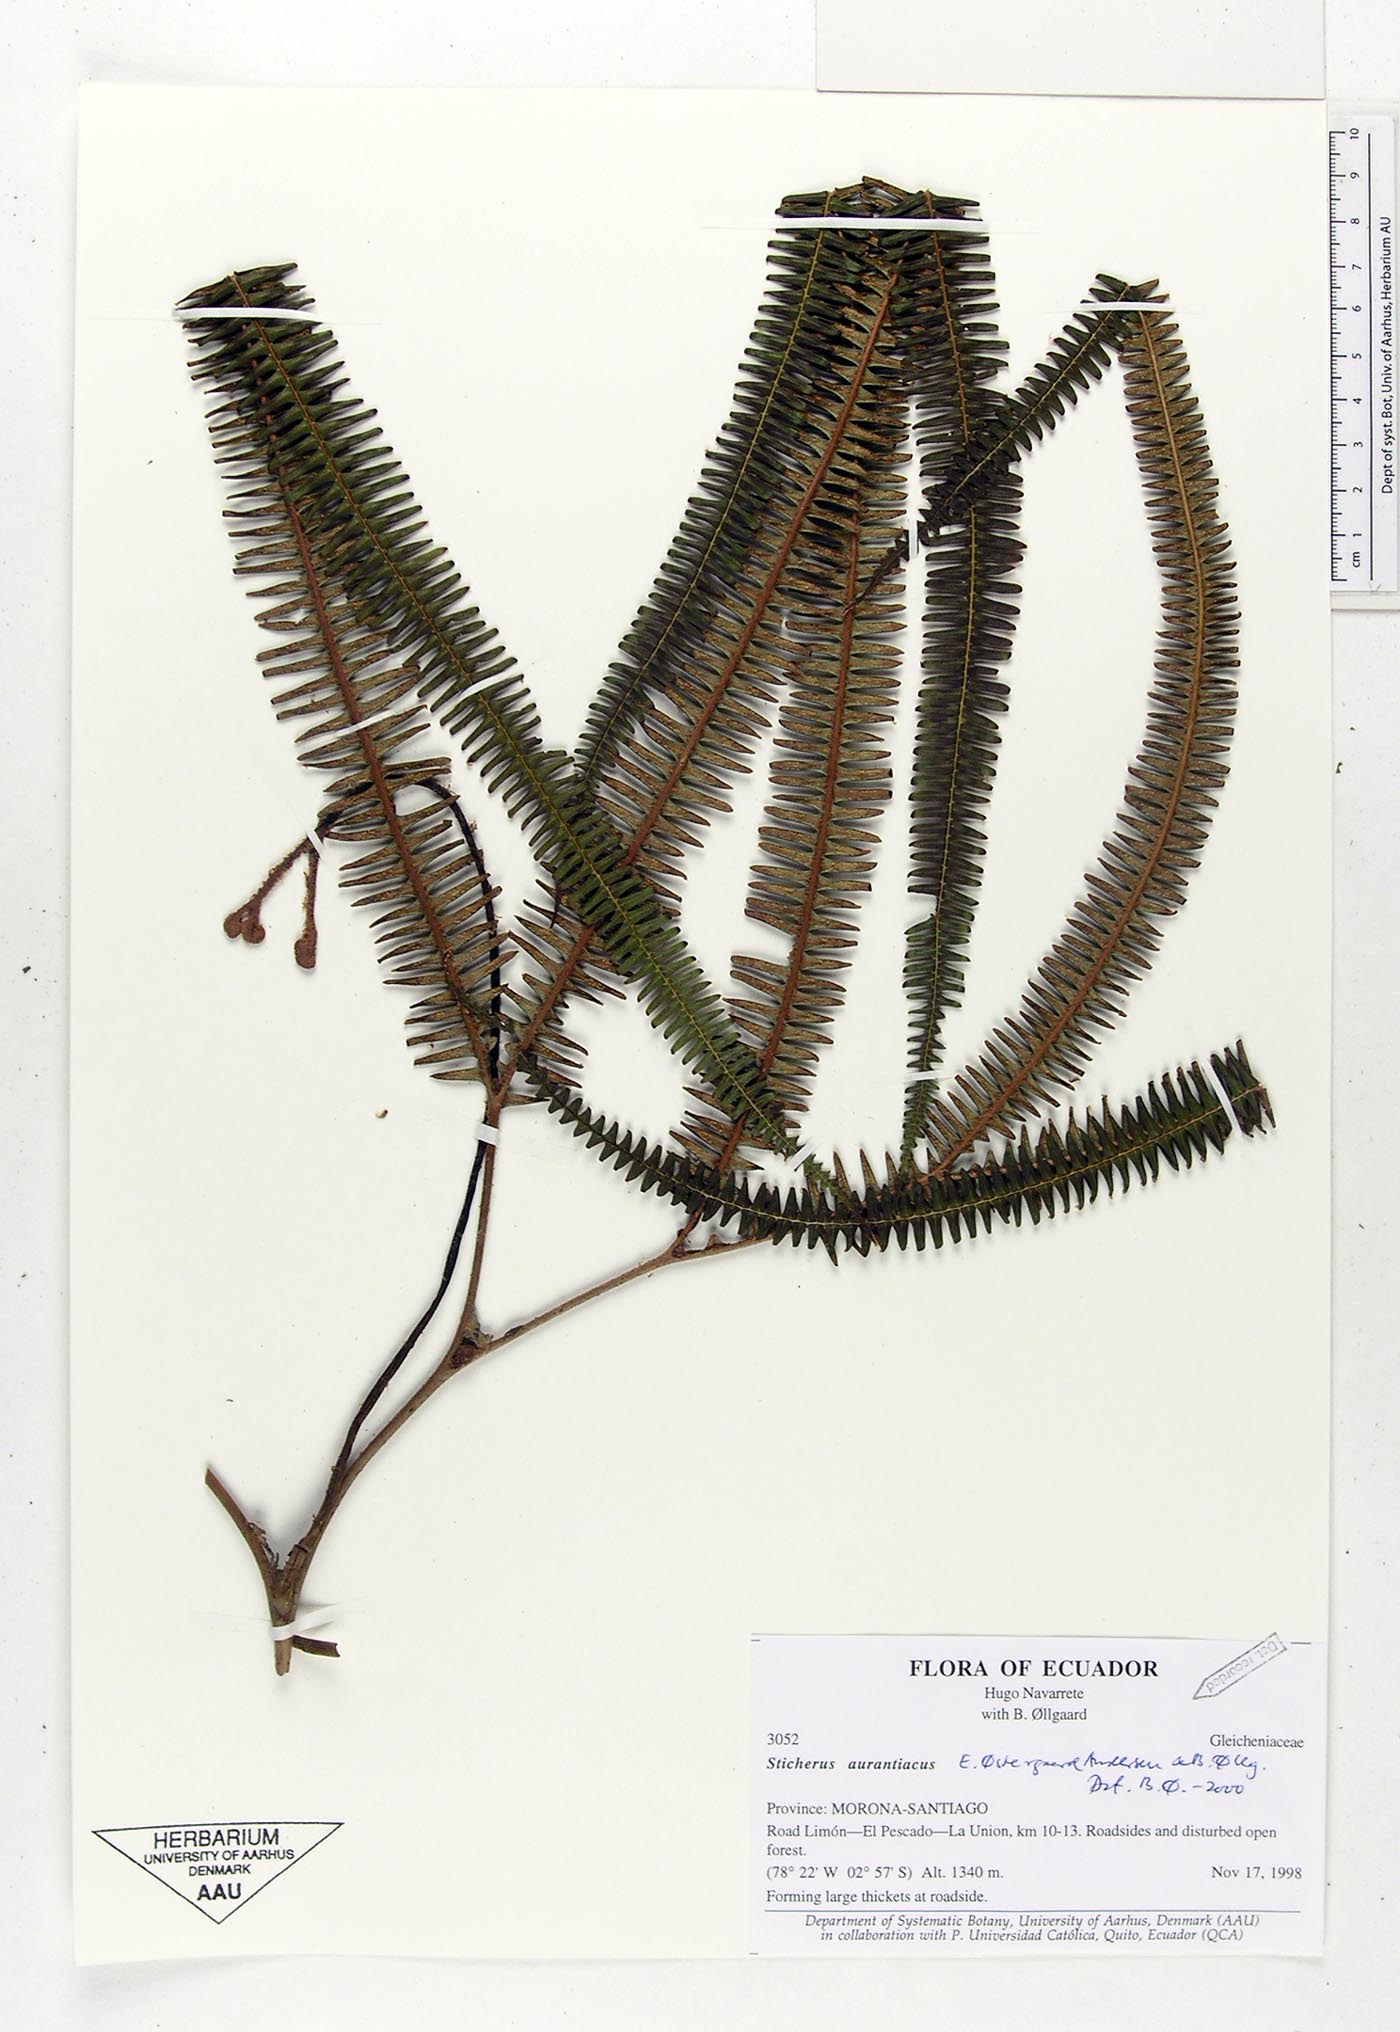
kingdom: Plantae
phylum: Tracheophyta
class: Polypodiopsida
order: Gleicheniales
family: Gleicheniaceae
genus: Sticherus
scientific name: Sticherus aurantiacus
